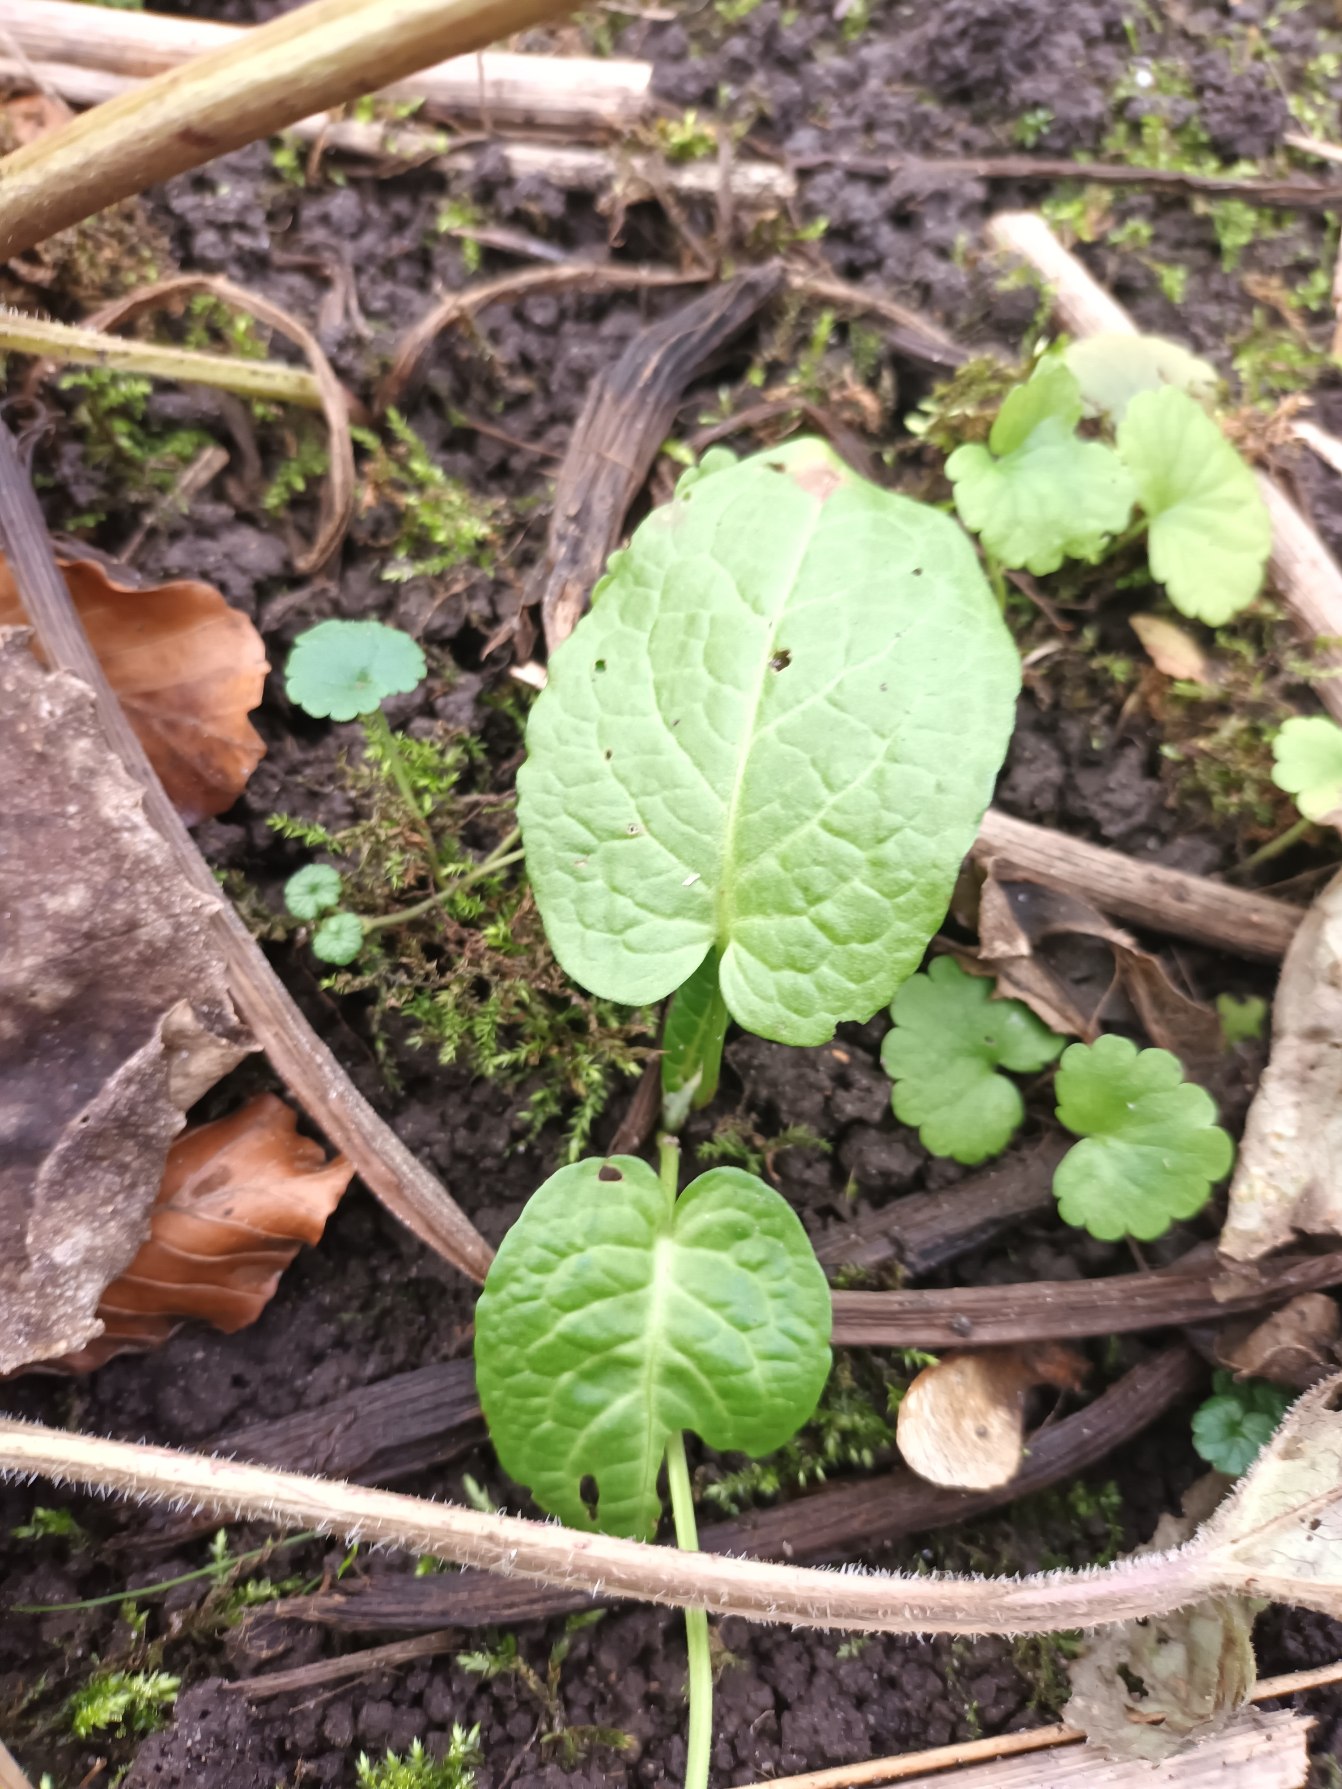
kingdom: Plantae
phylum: Tracheophyta
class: Magnoliopsida
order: Caryophyllales
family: Polygonaceae
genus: Rumex
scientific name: Rumex obtusifolius
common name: Butbladet skræppe
